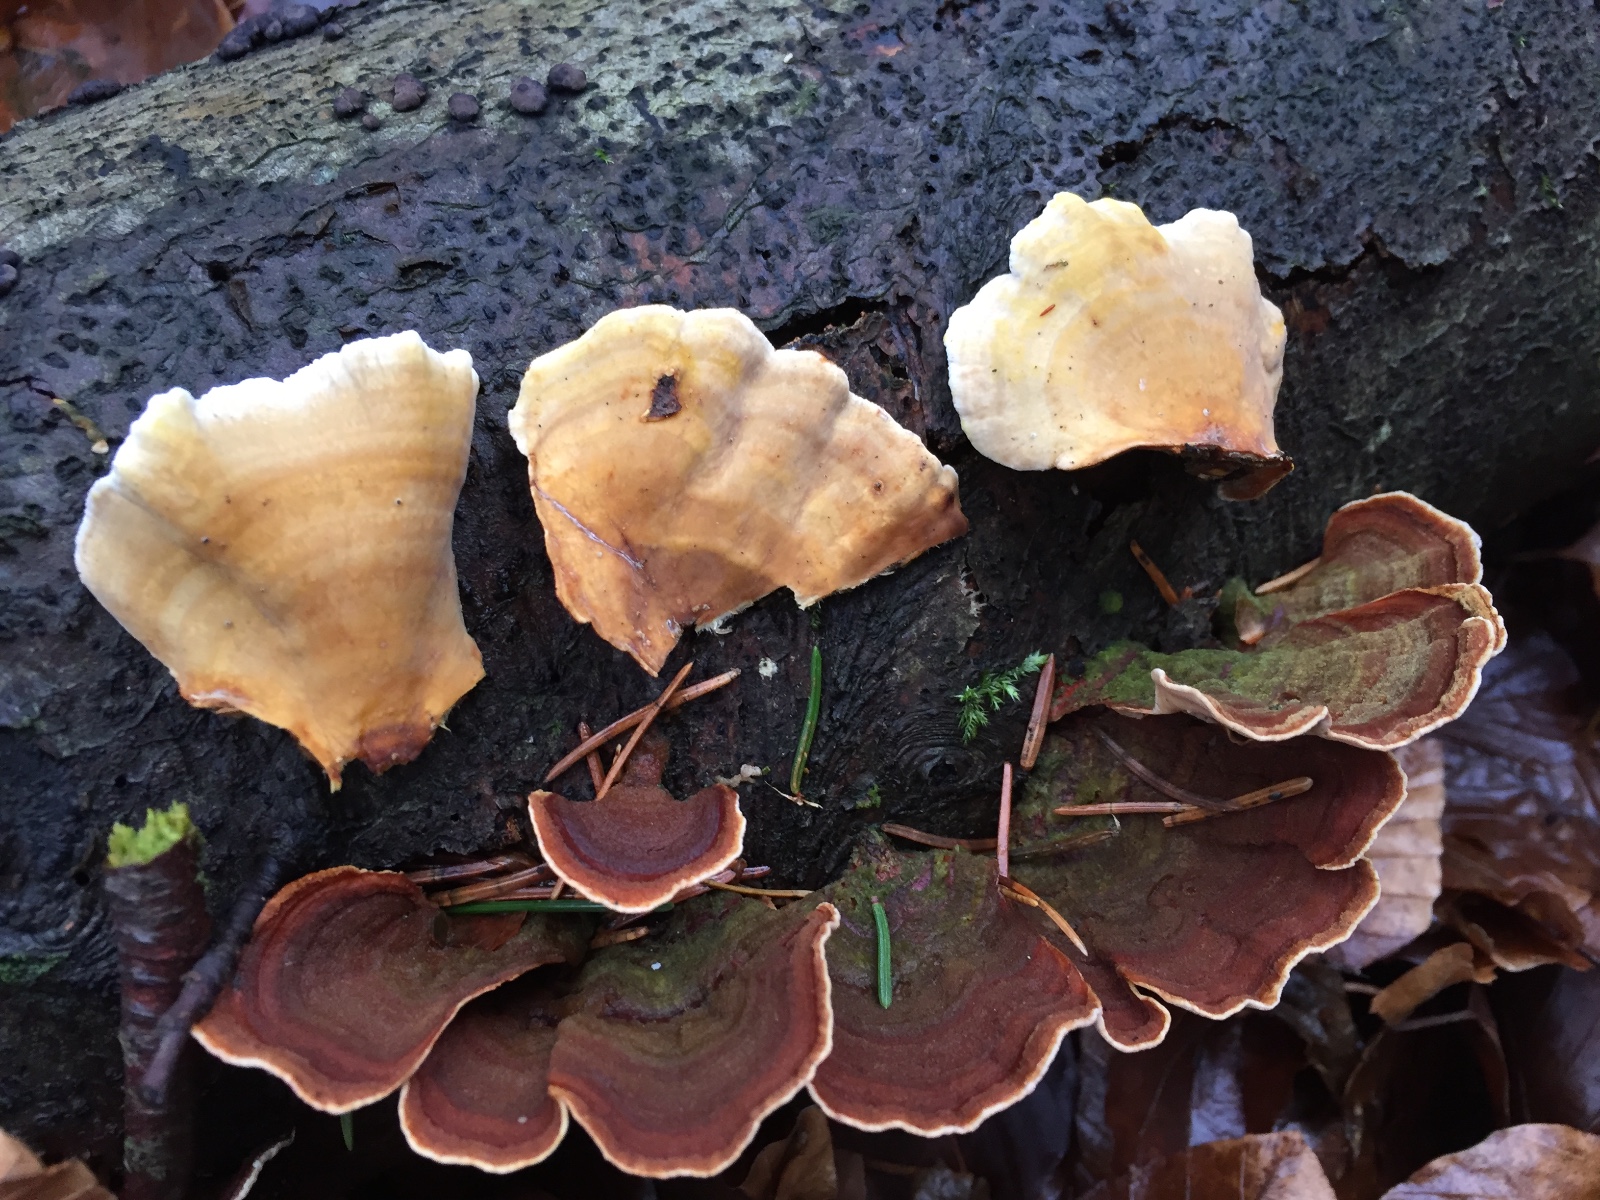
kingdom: Fungi
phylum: Basidiomycota
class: Agaricomycetes
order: Russulales
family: Stereaceae
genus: Stereum
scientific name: Stereum subtomentosum
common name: smuk lædersvamp
